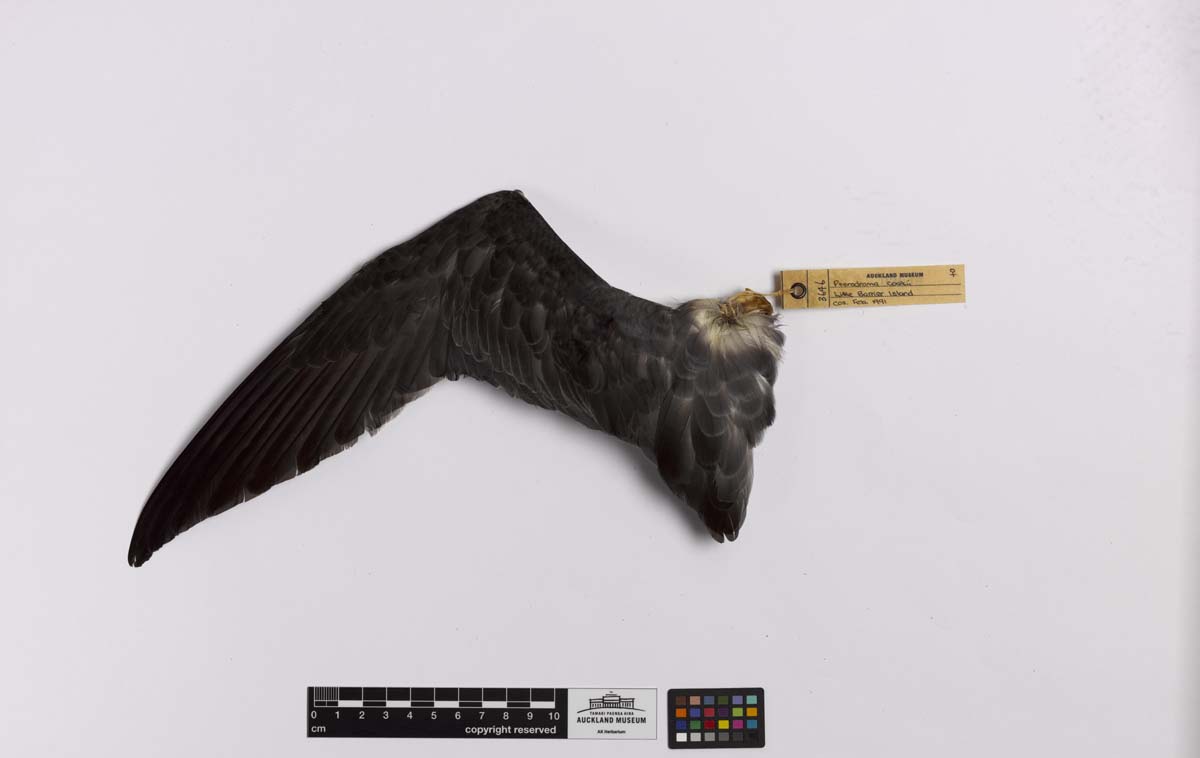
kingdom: Animalia
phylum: Chordata
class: Aves
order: Procellariiformes
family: Procellariidae
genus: Pterodroma
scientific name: Pterodroma cookii
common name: Cook's petrel
